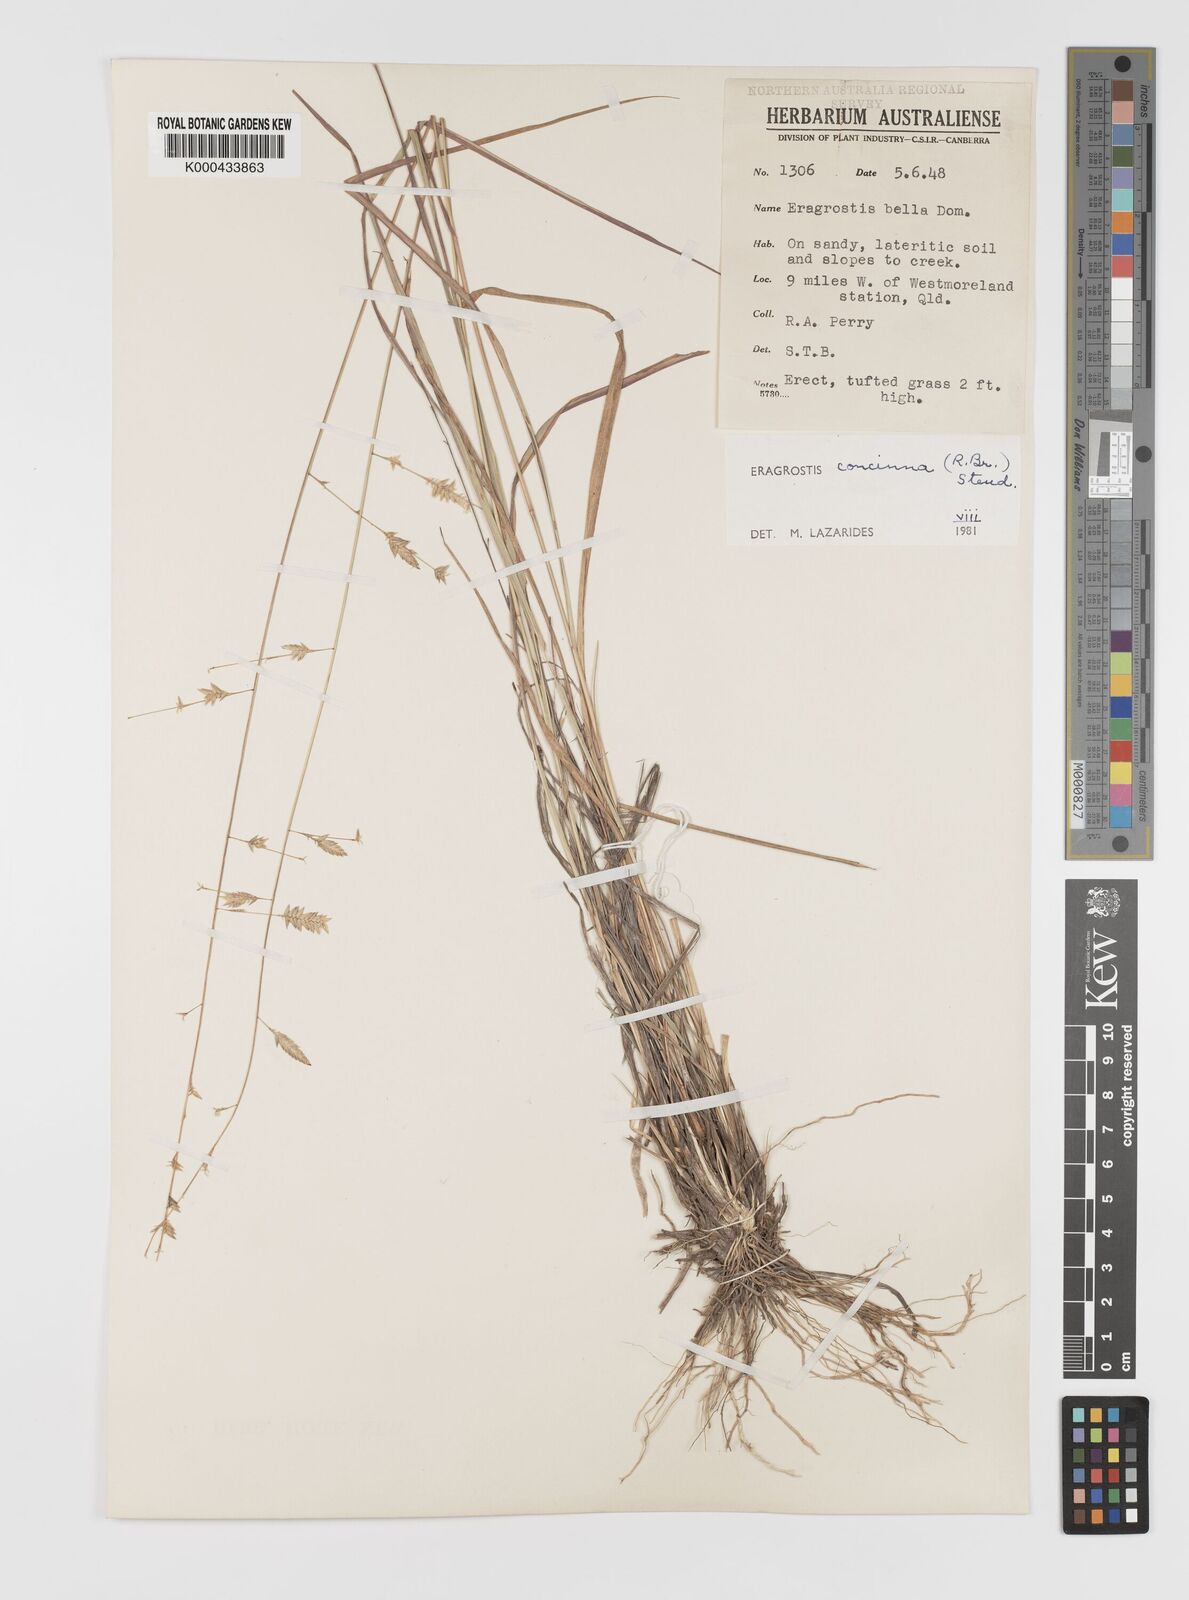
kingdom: Plantae
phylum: Tracheophyta
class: Liliopsida
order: Poales
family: Poaceae
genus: Eragrostis
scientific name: Eragrostis concinna
